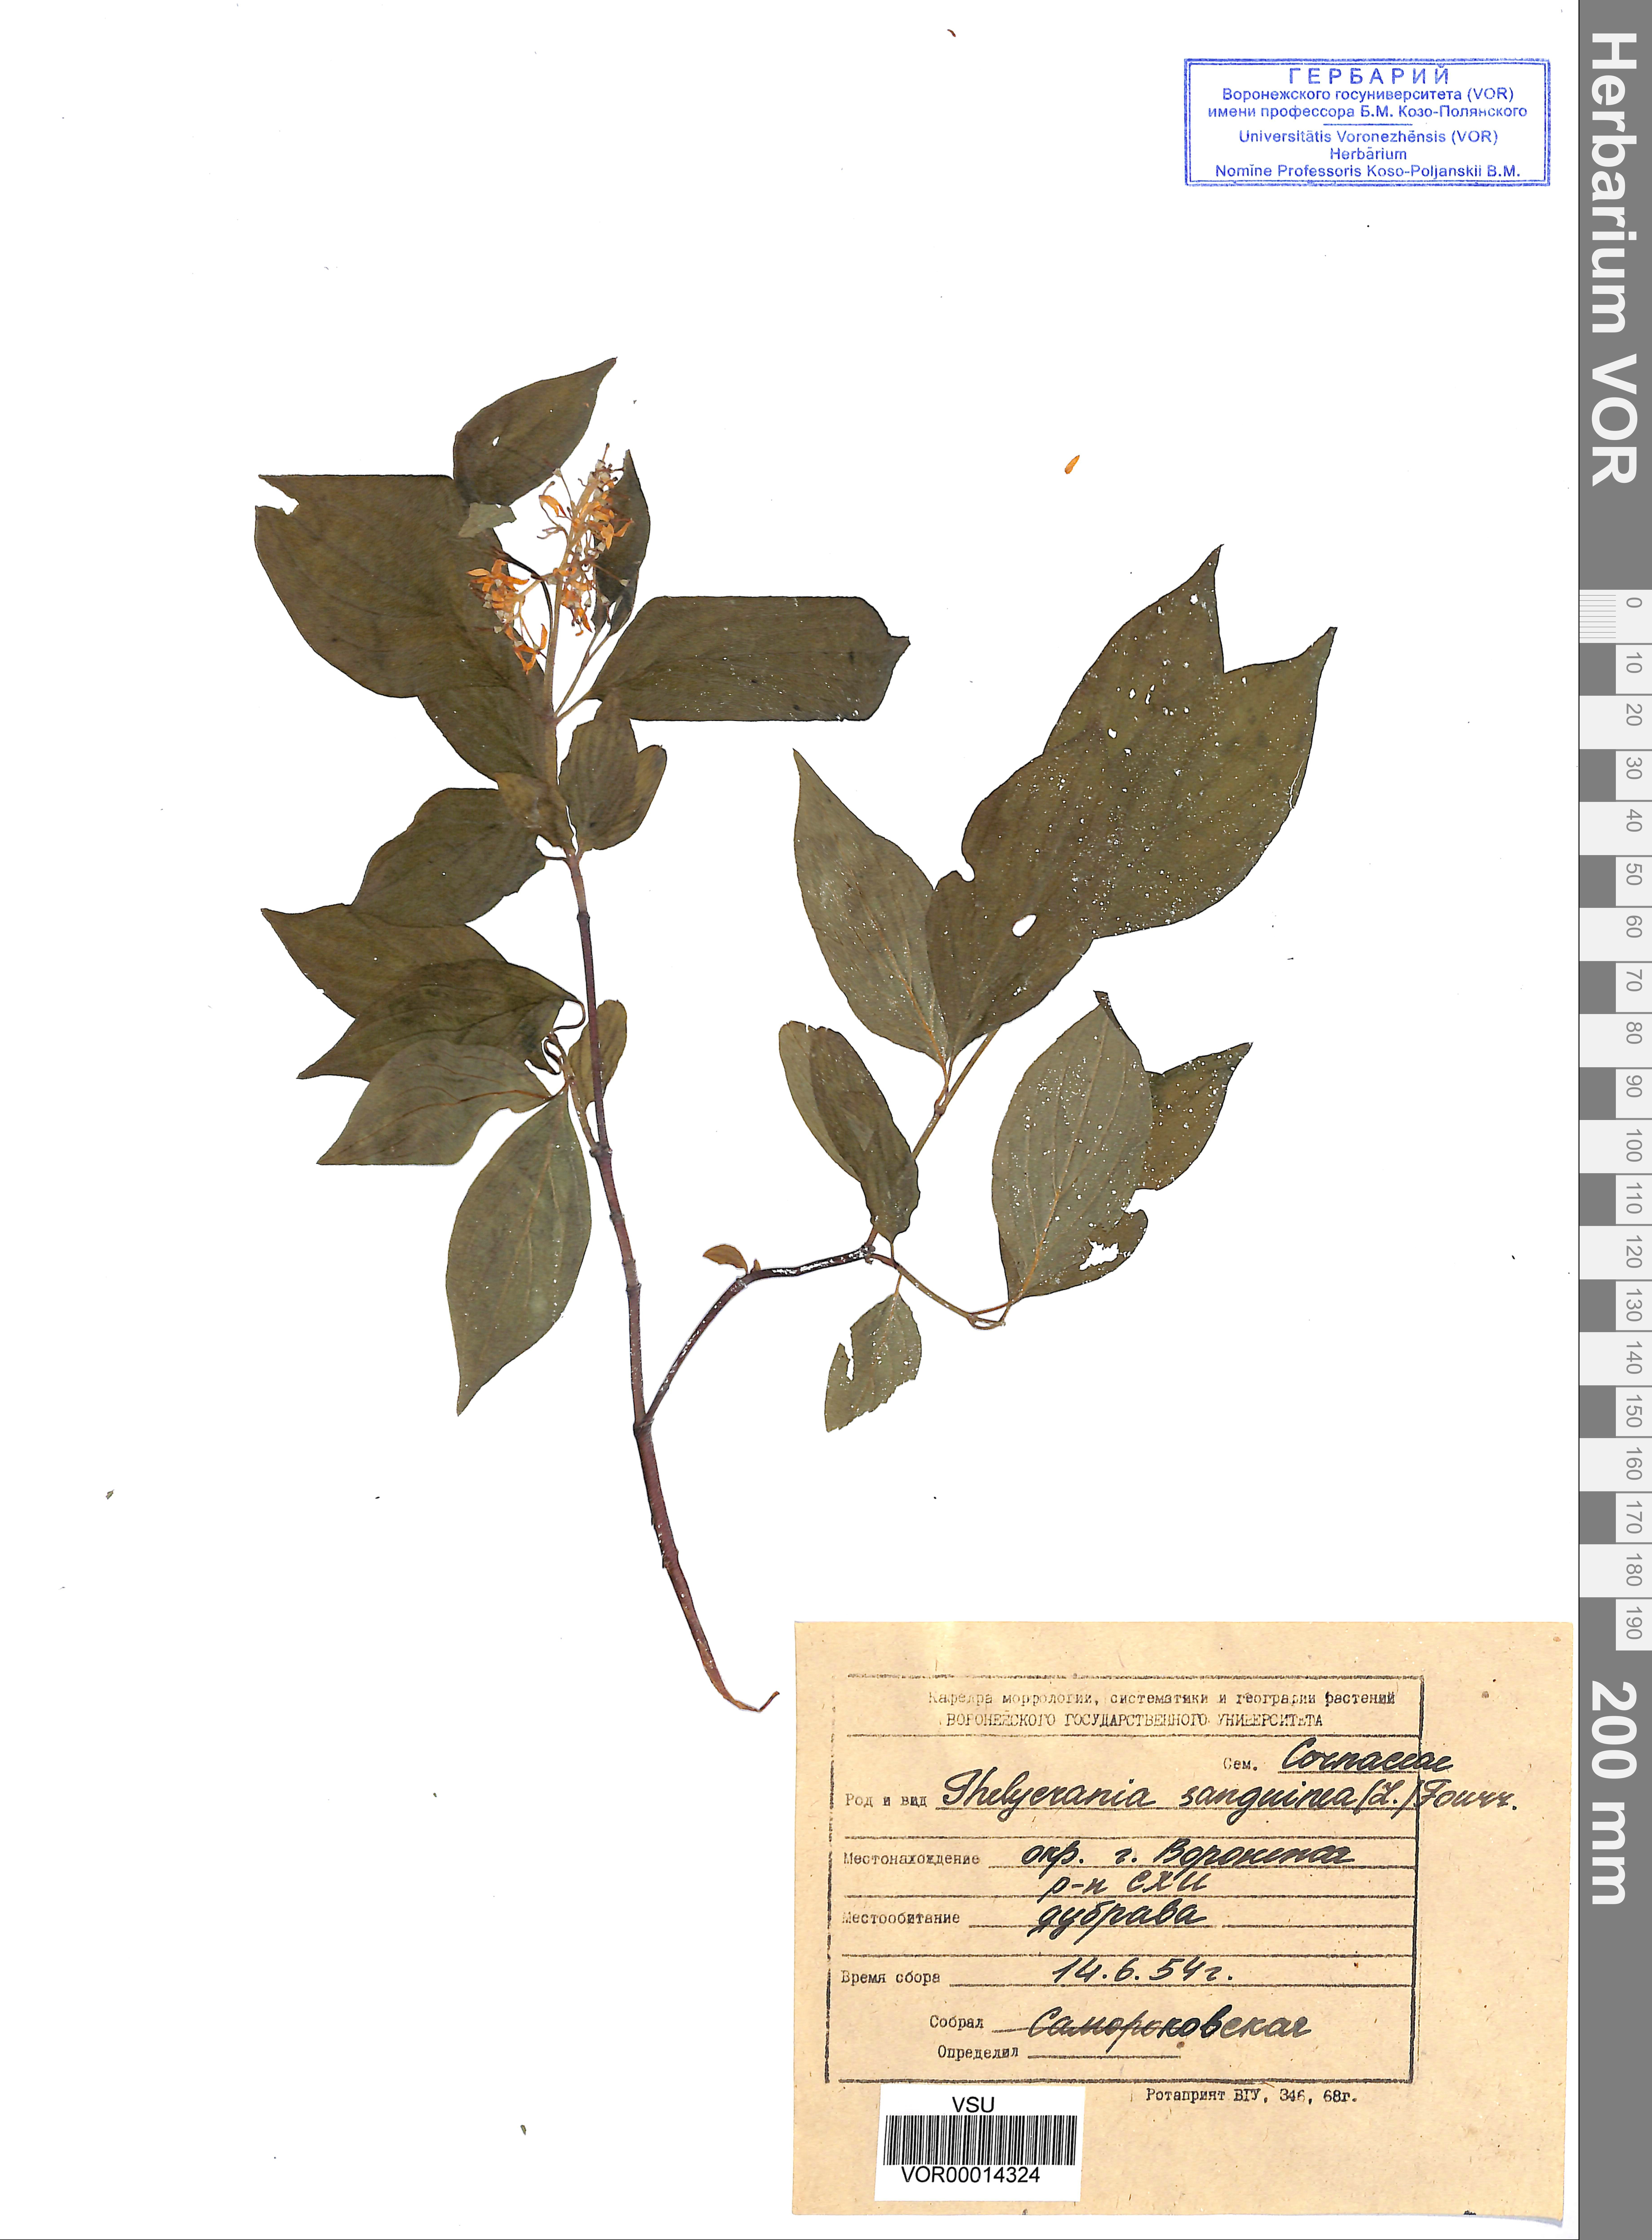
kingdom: Plantae
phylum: Tracheophyta
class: Magnoliopsida
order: Cornales
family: Cornaceae
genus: Cornus
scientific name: Cornus sanguinea
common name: Dogwood
